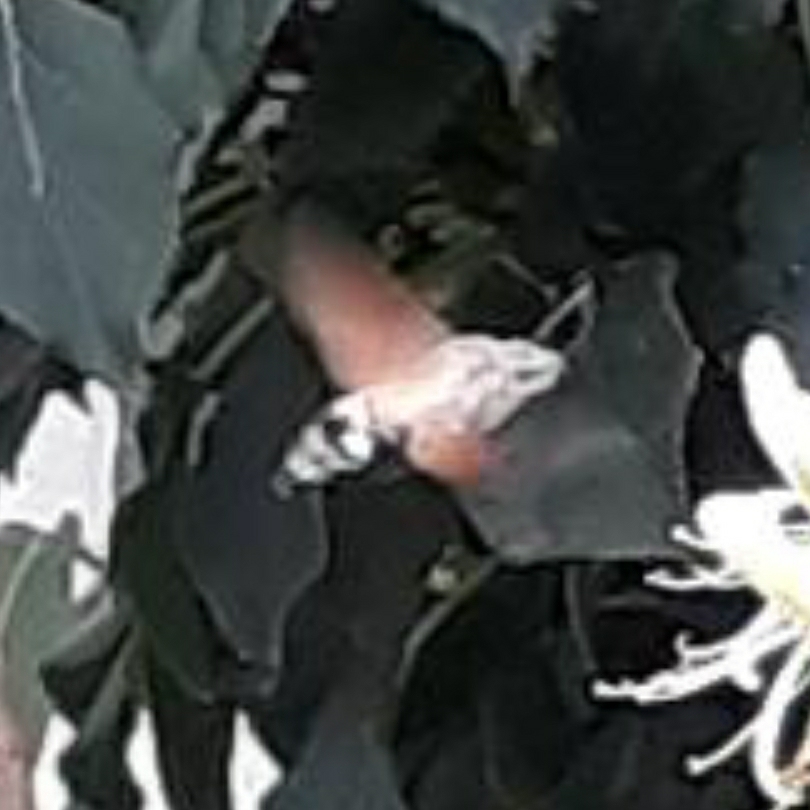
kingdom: Animalia
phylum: Arthropoda
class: Insecta
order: Lepidoptera
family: Sphingidae
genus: Macroglossum
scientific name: Macroglossum stellatarum
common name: Duehale
